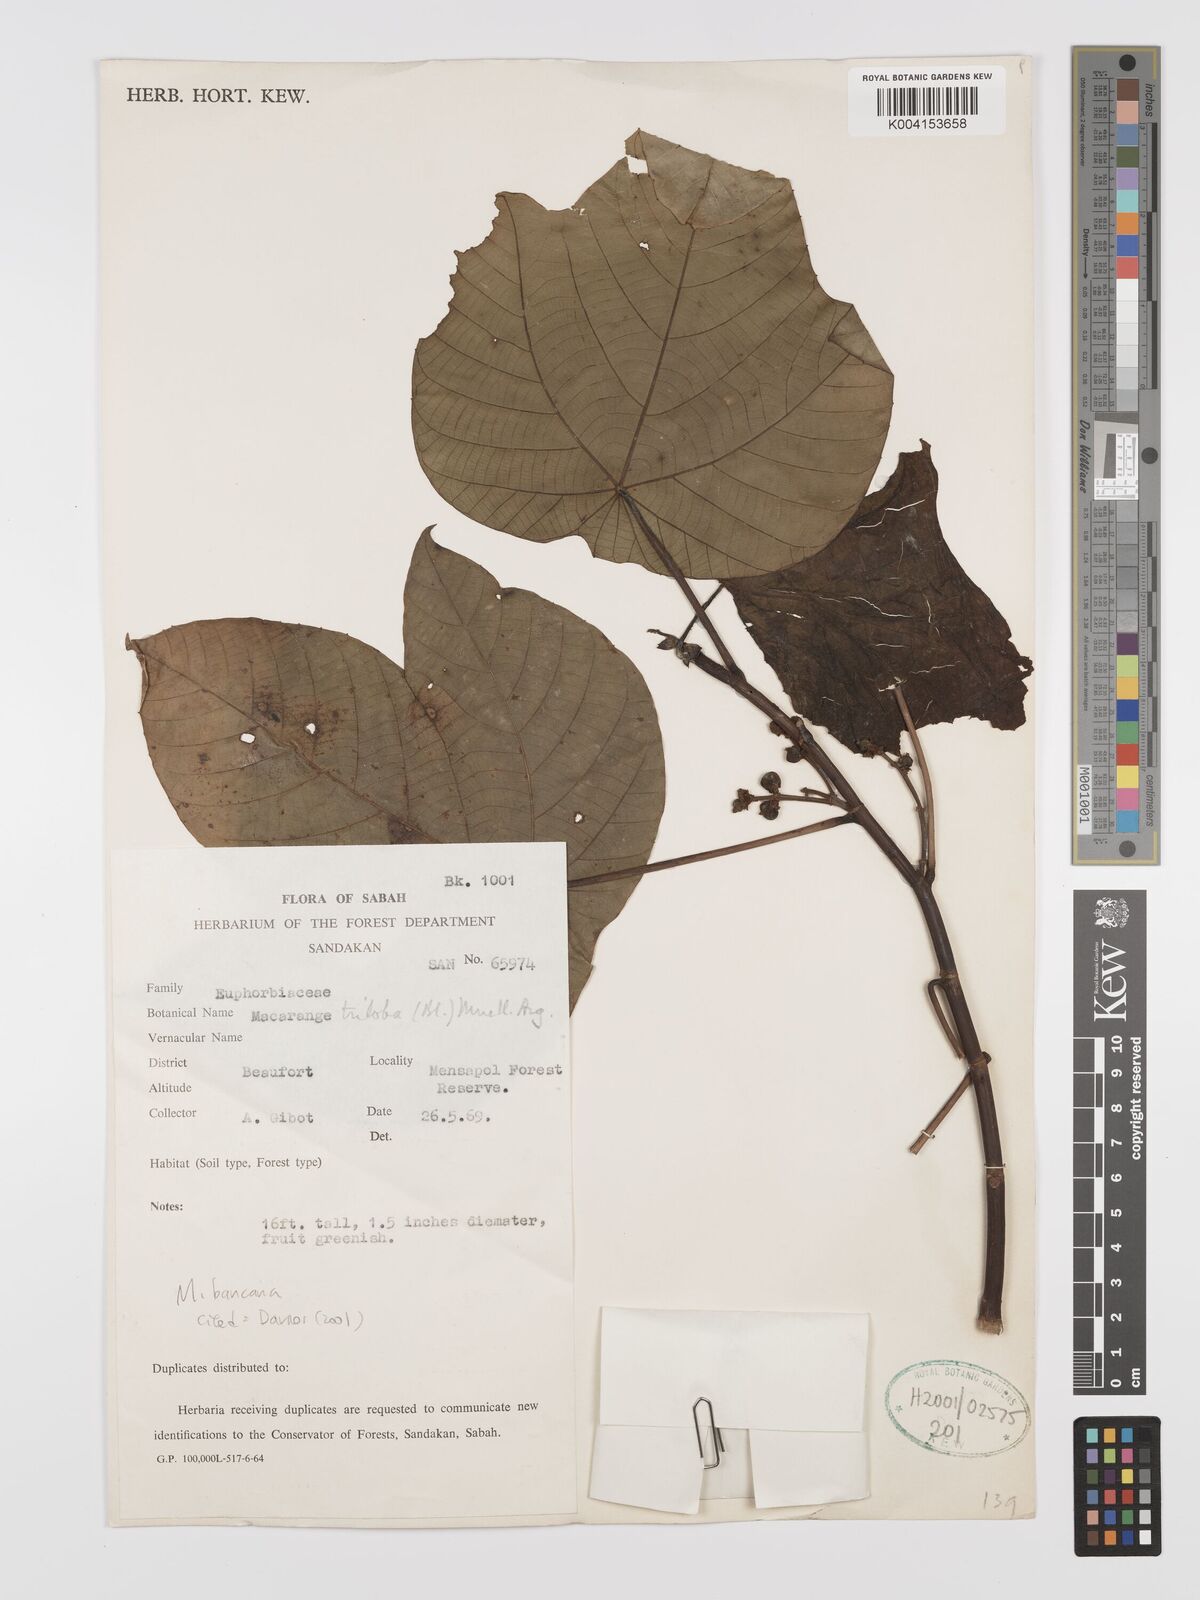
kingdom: Plantae
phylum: Tracheophyta
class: Magnoliopsida
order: Malpighiales
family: Euphorbiaceae
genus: Macaranga
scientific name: Macaranga triloba
